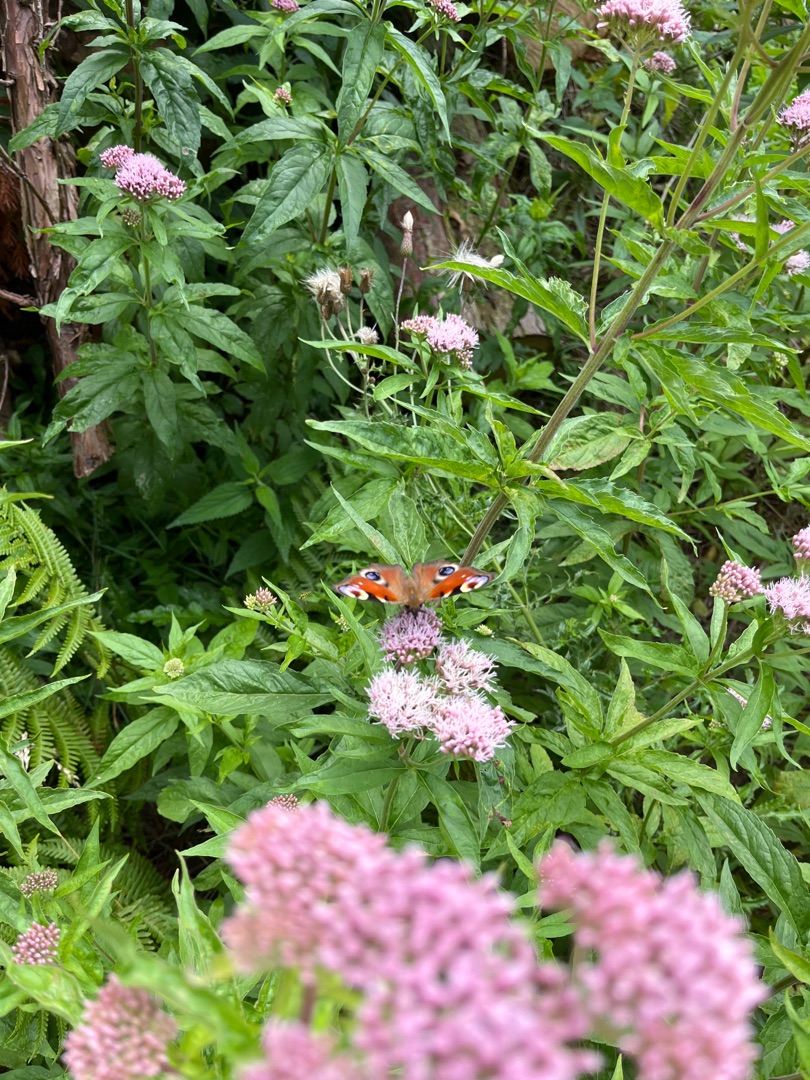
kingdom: Plantae
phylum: Tracheophyta
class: Magnoliopsida
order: Asterales
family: Asteraceae
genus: Eupatorium
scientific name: Eupatorium cannabinum
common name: Hjortetrøst
